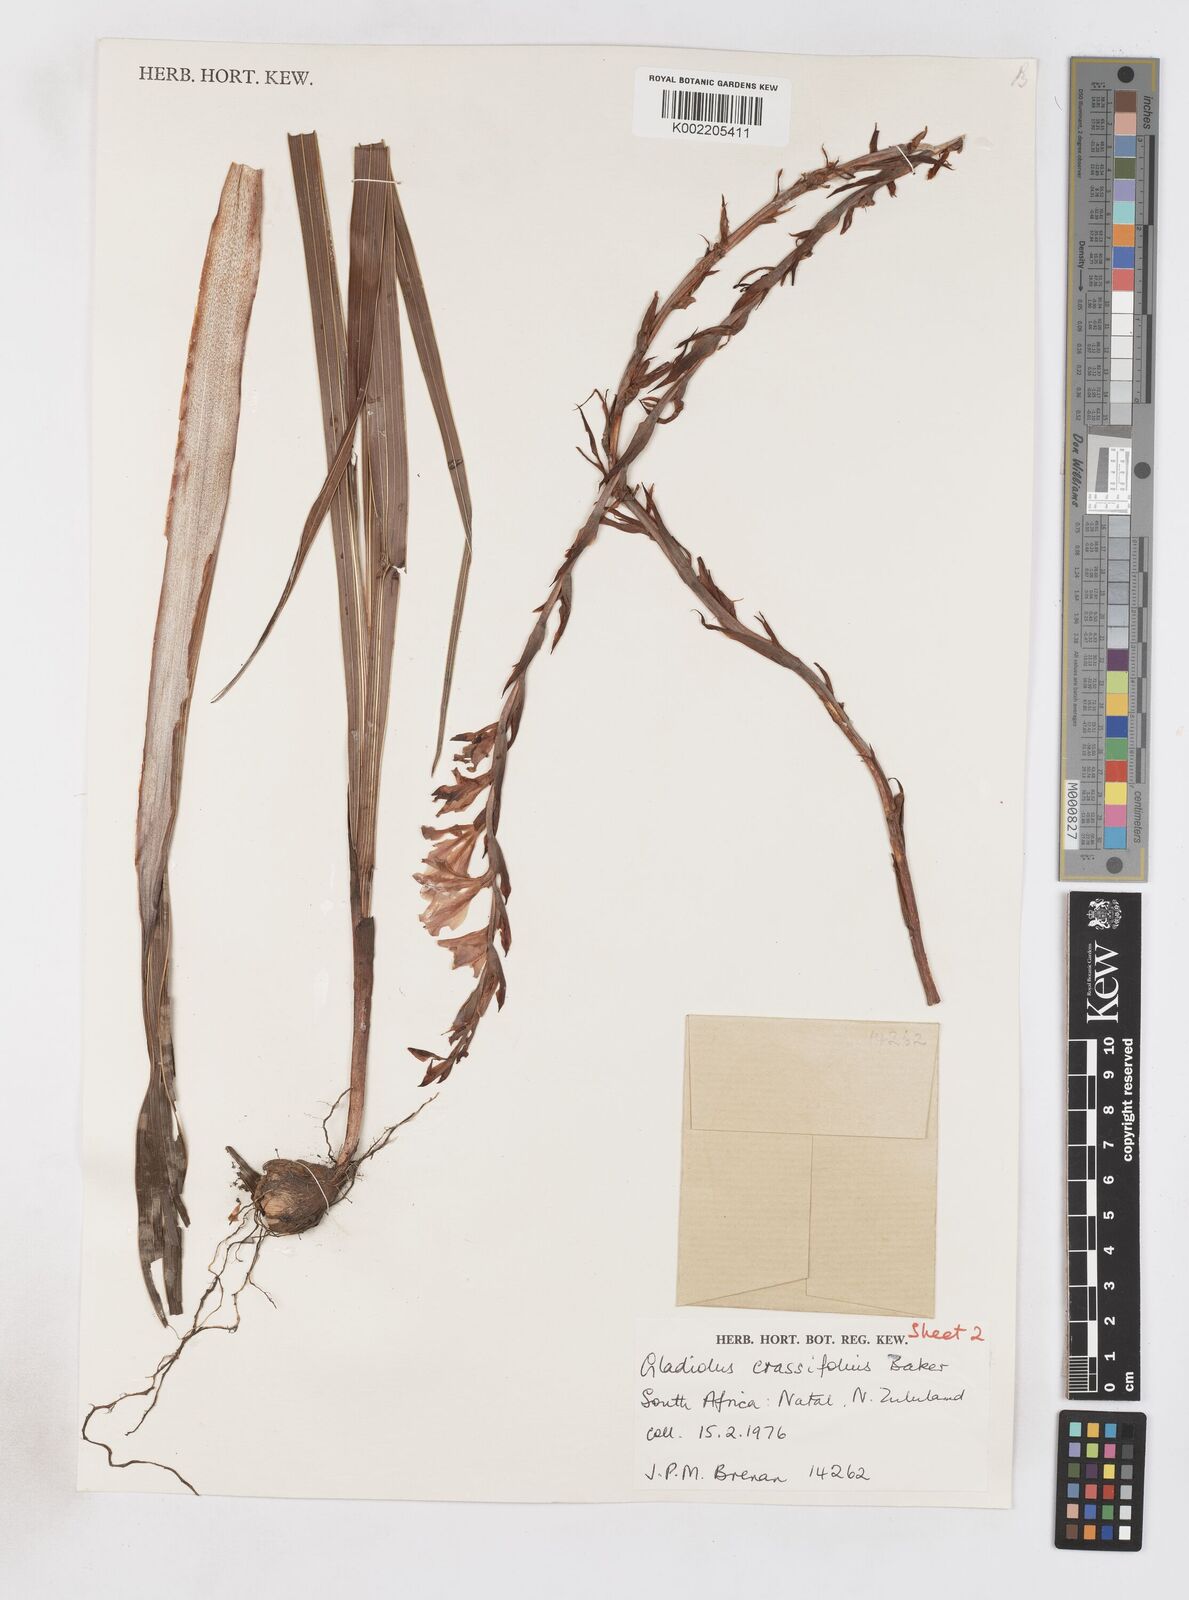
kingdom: Plantae
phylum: Tracheophyta
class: Liliopsida
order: Asparagales
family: Iridaceae
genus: Gladiolus
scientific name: Gladiolus densiflorus
